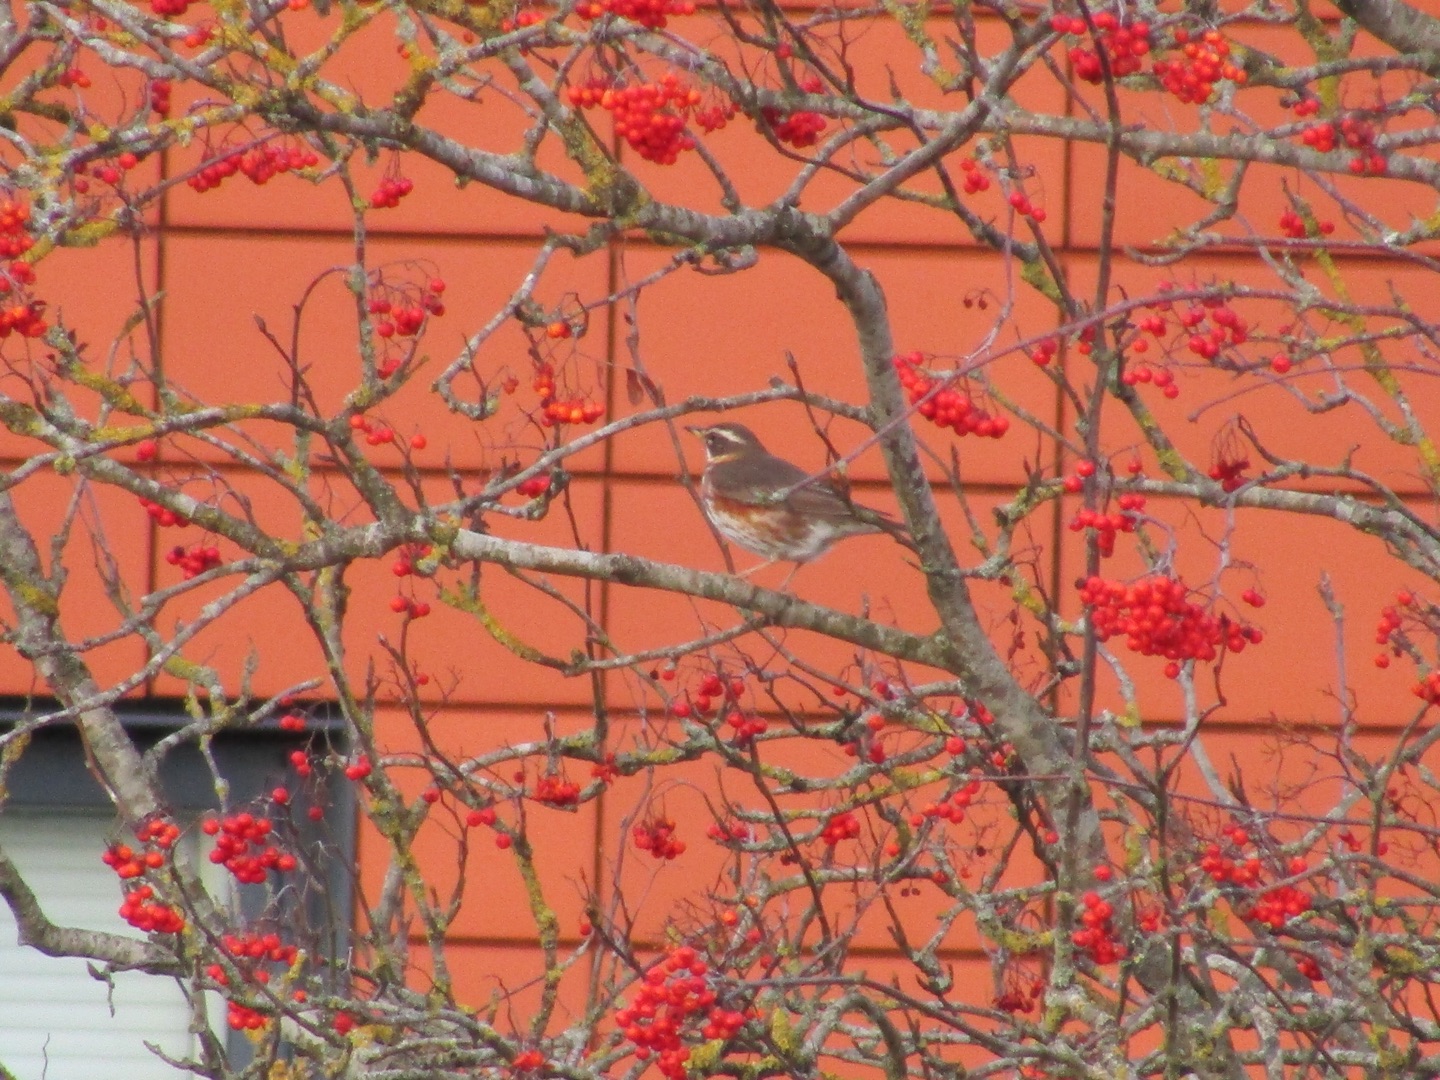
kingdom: Animalia
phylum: Chordata
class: Aves
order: Passeriformes
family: Turdidae
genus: Turdus
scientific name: Turdus iliacus
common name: Vindrossel
